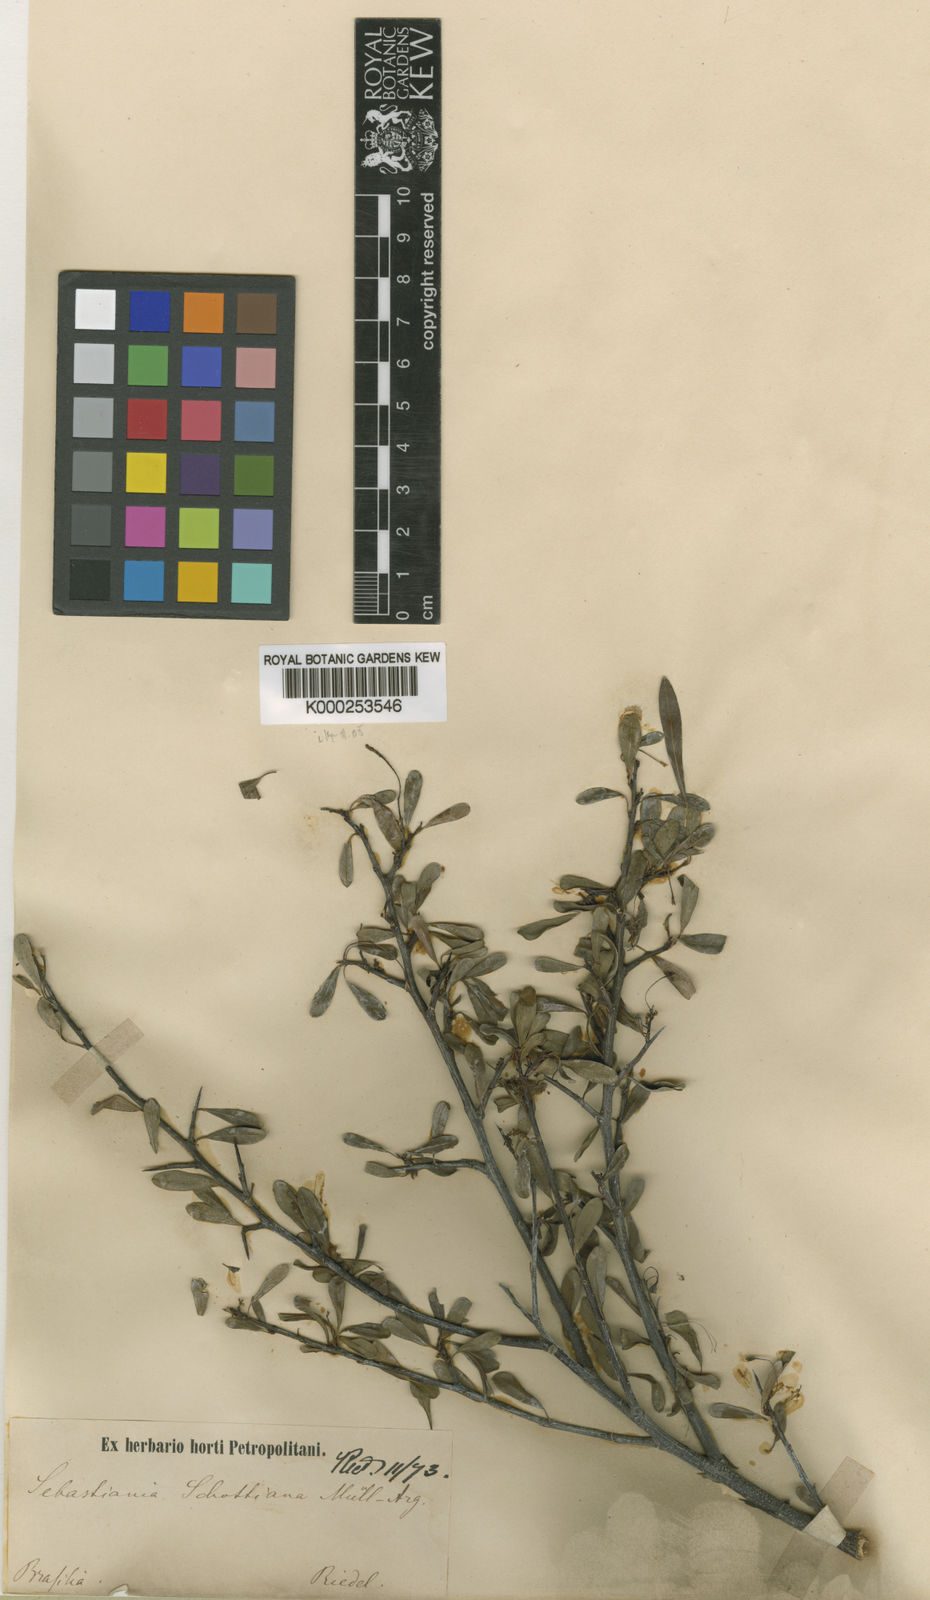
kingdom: Plantae
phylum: Tracheophyta
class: Magnoliopsida
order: Malpighiales
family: Euphorbiaceae
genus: Gymnanthes
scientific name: Gymnanthes
